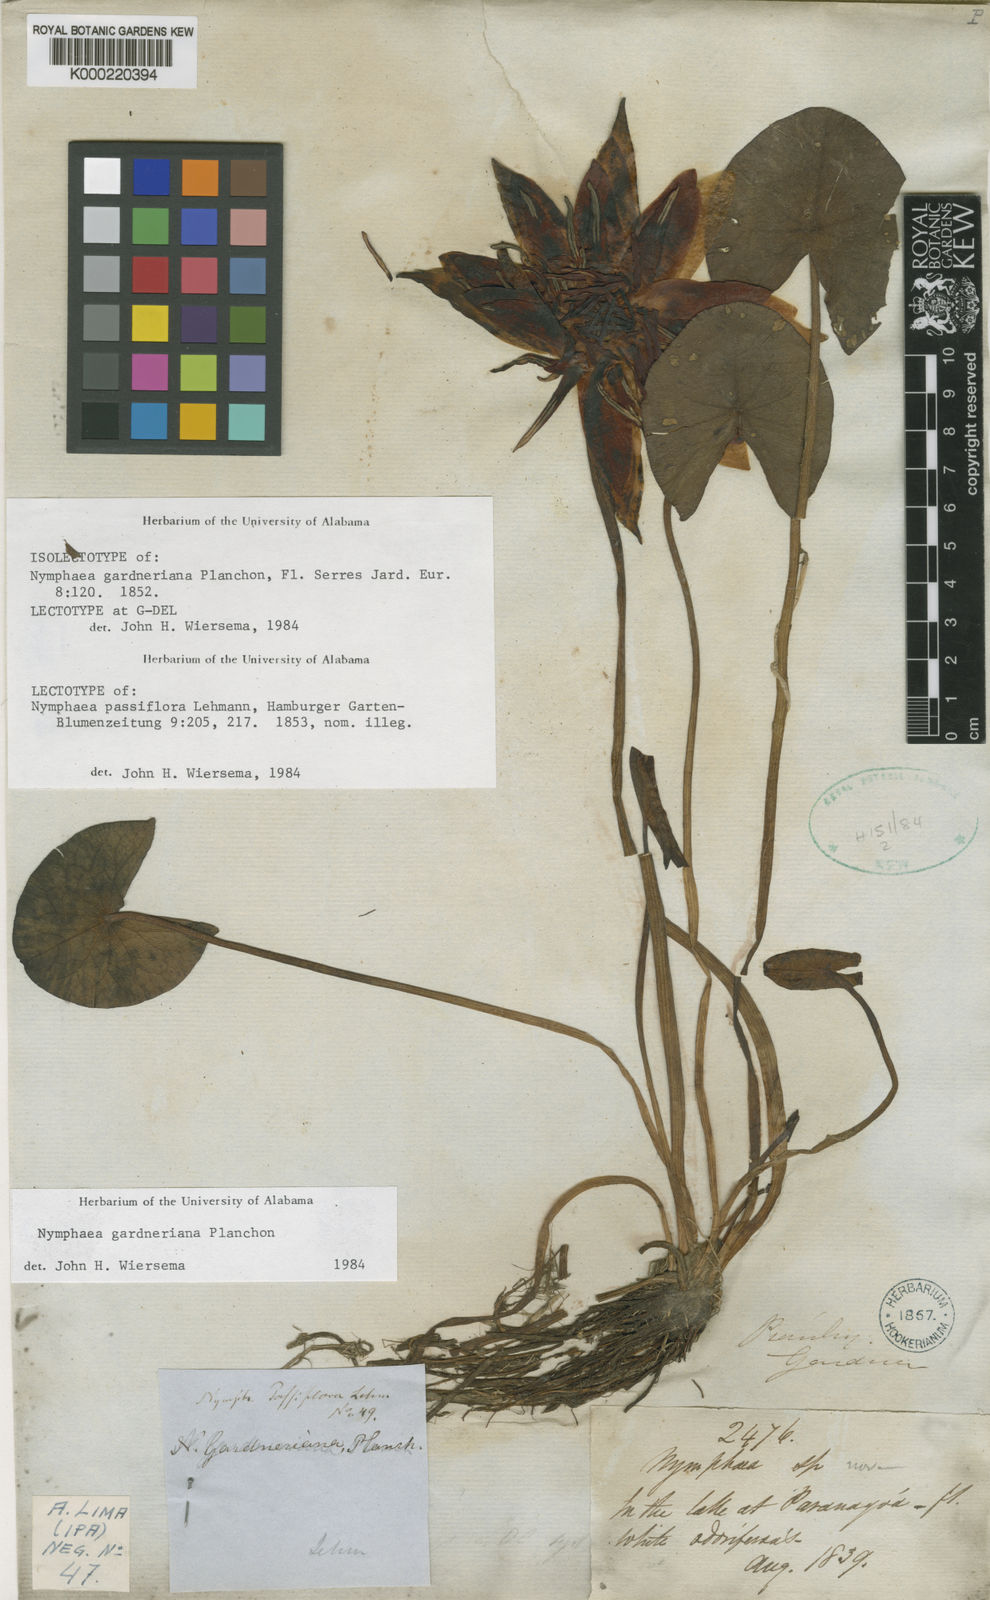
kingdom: Plantae
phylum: Tracheophyta
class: Magnoliopsida
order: Nymphaeales
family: Nymphaeaceae
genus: Nymphaea
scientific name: Nymphaea gardneriana
